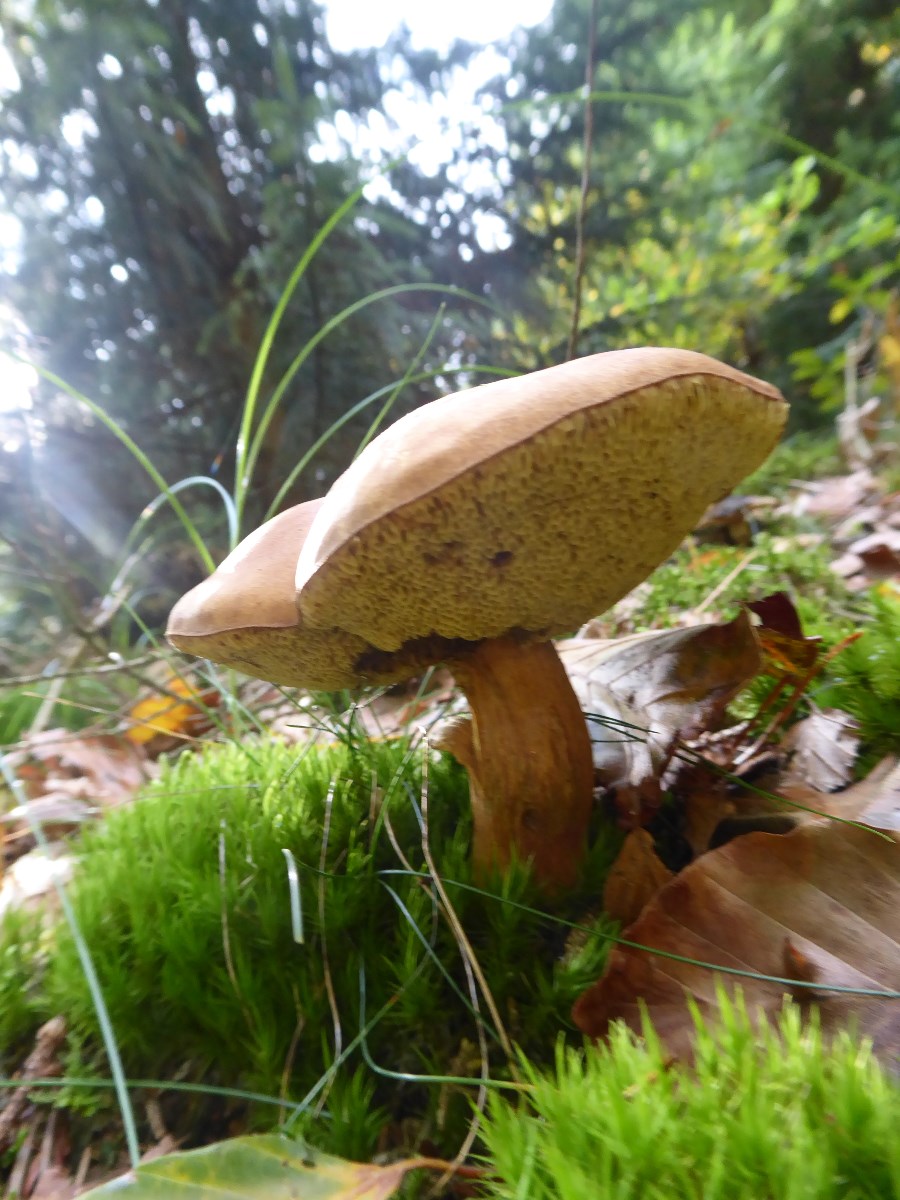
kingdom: Fungi
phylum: Basidiomycota
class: Agaricomycetes
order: Boletales
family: Boletaceae
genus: Imleria
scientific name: Imleria badia
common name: brunstokket rørhat
